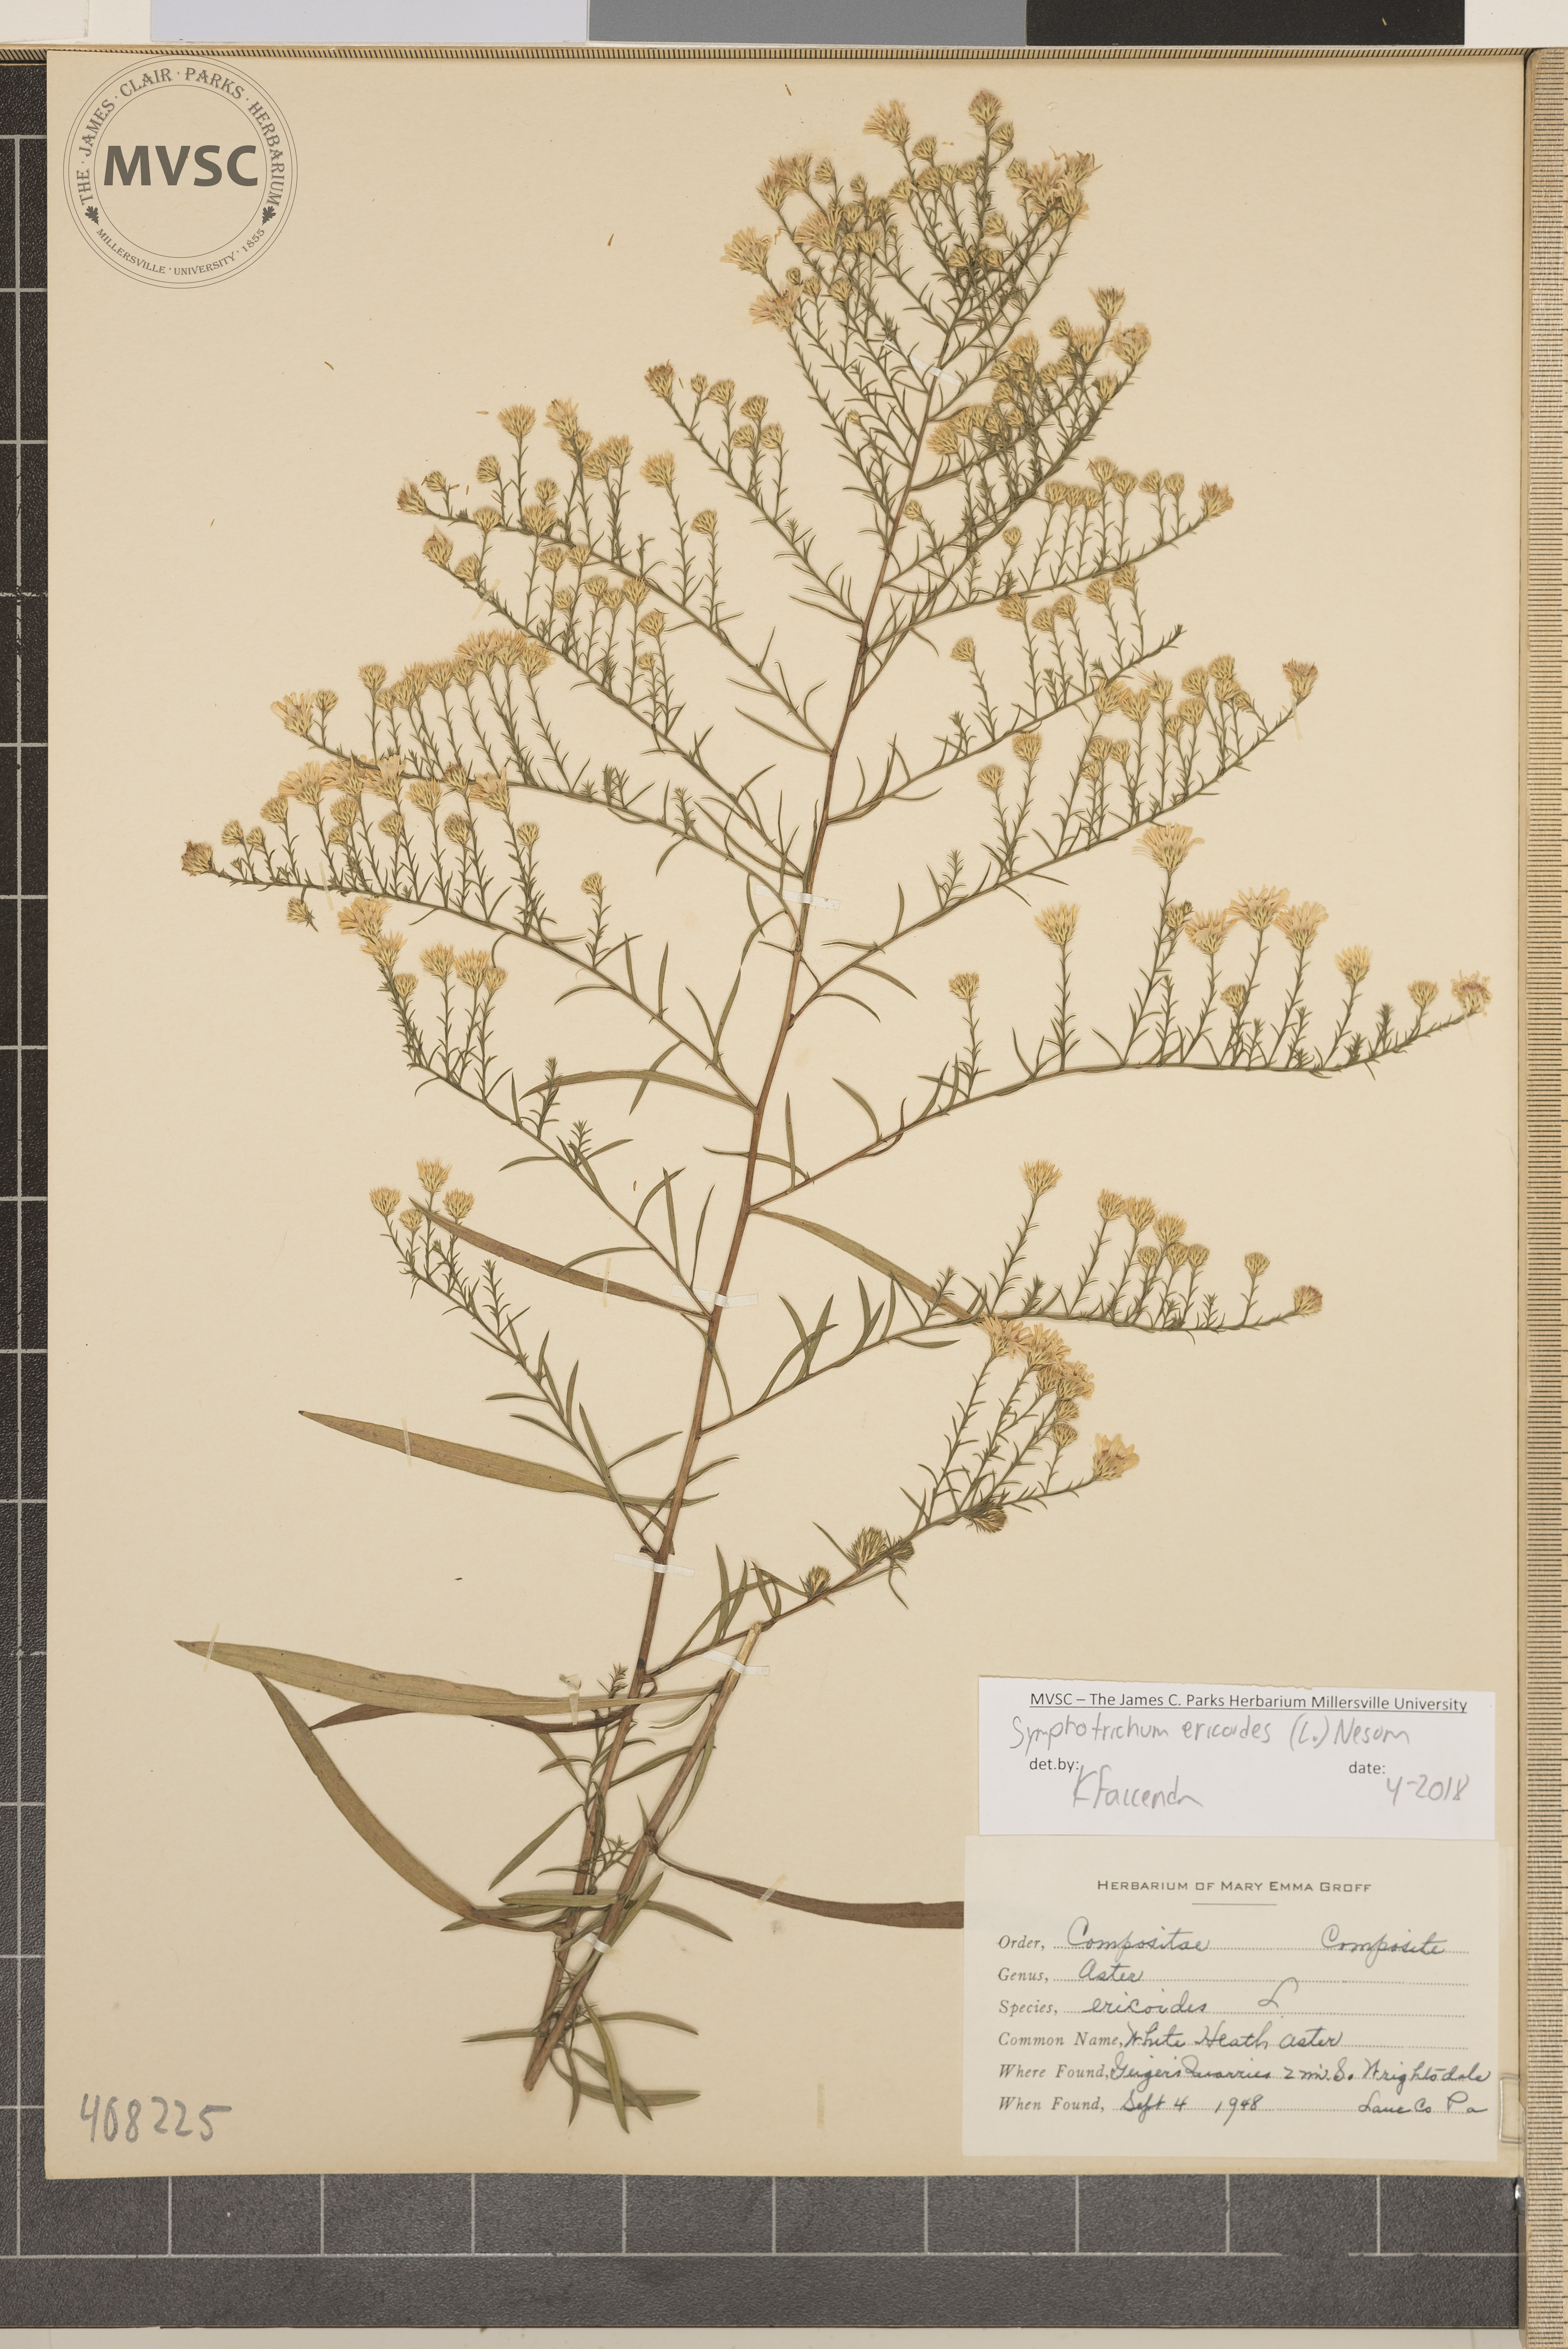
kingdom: Plantae
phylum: Tracheophyta
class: Magnoliopsida
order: Asterales
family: Asteraceae
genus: Symphyotrichum
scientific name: Symphyotrichum ericoides
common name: white heath aster
